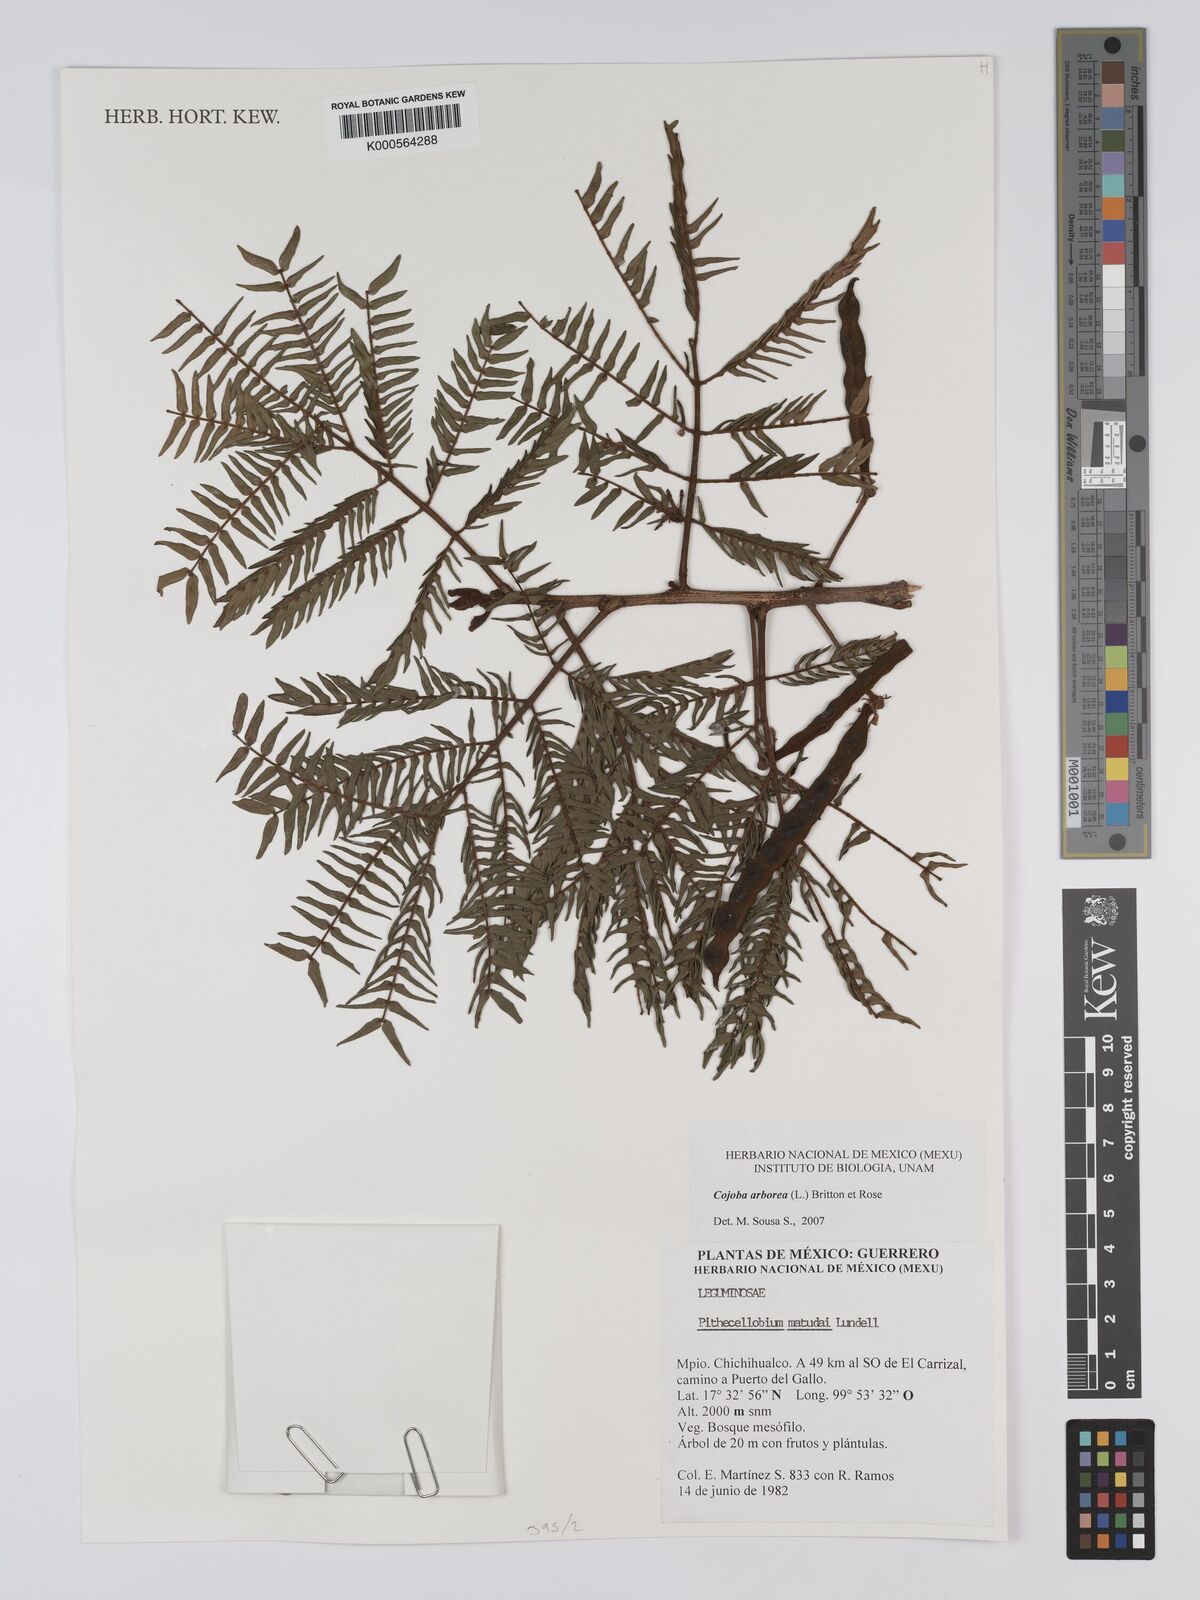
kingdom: Plantae
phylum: Tracheophyta
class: Magnoliopsida
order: Fabales
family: Fabaceae
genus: Cojoba
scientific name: Cojoba arborea
